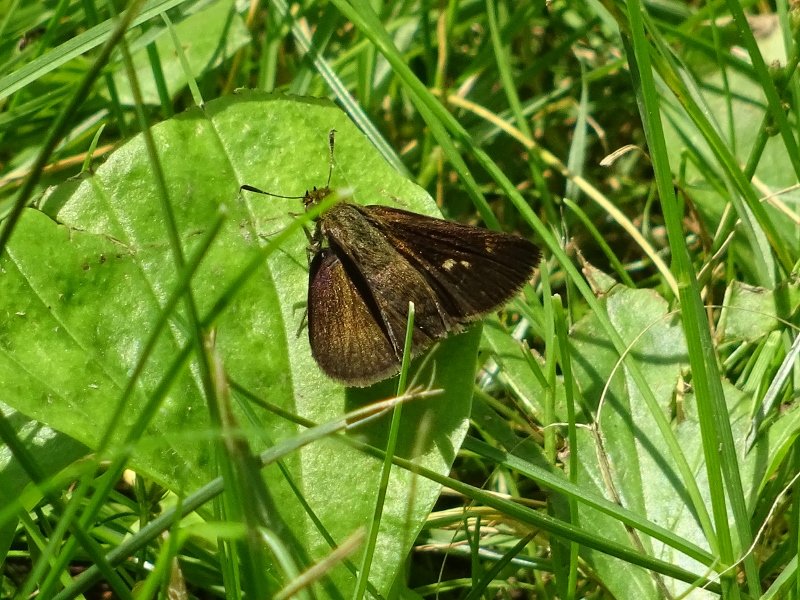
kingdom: Animalia
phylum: Arthropoda
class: Insecta
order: Lepidoptera
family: Hesperiidae
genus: Euphyes
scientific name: Euphyes vestris
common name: Dun Skipper
